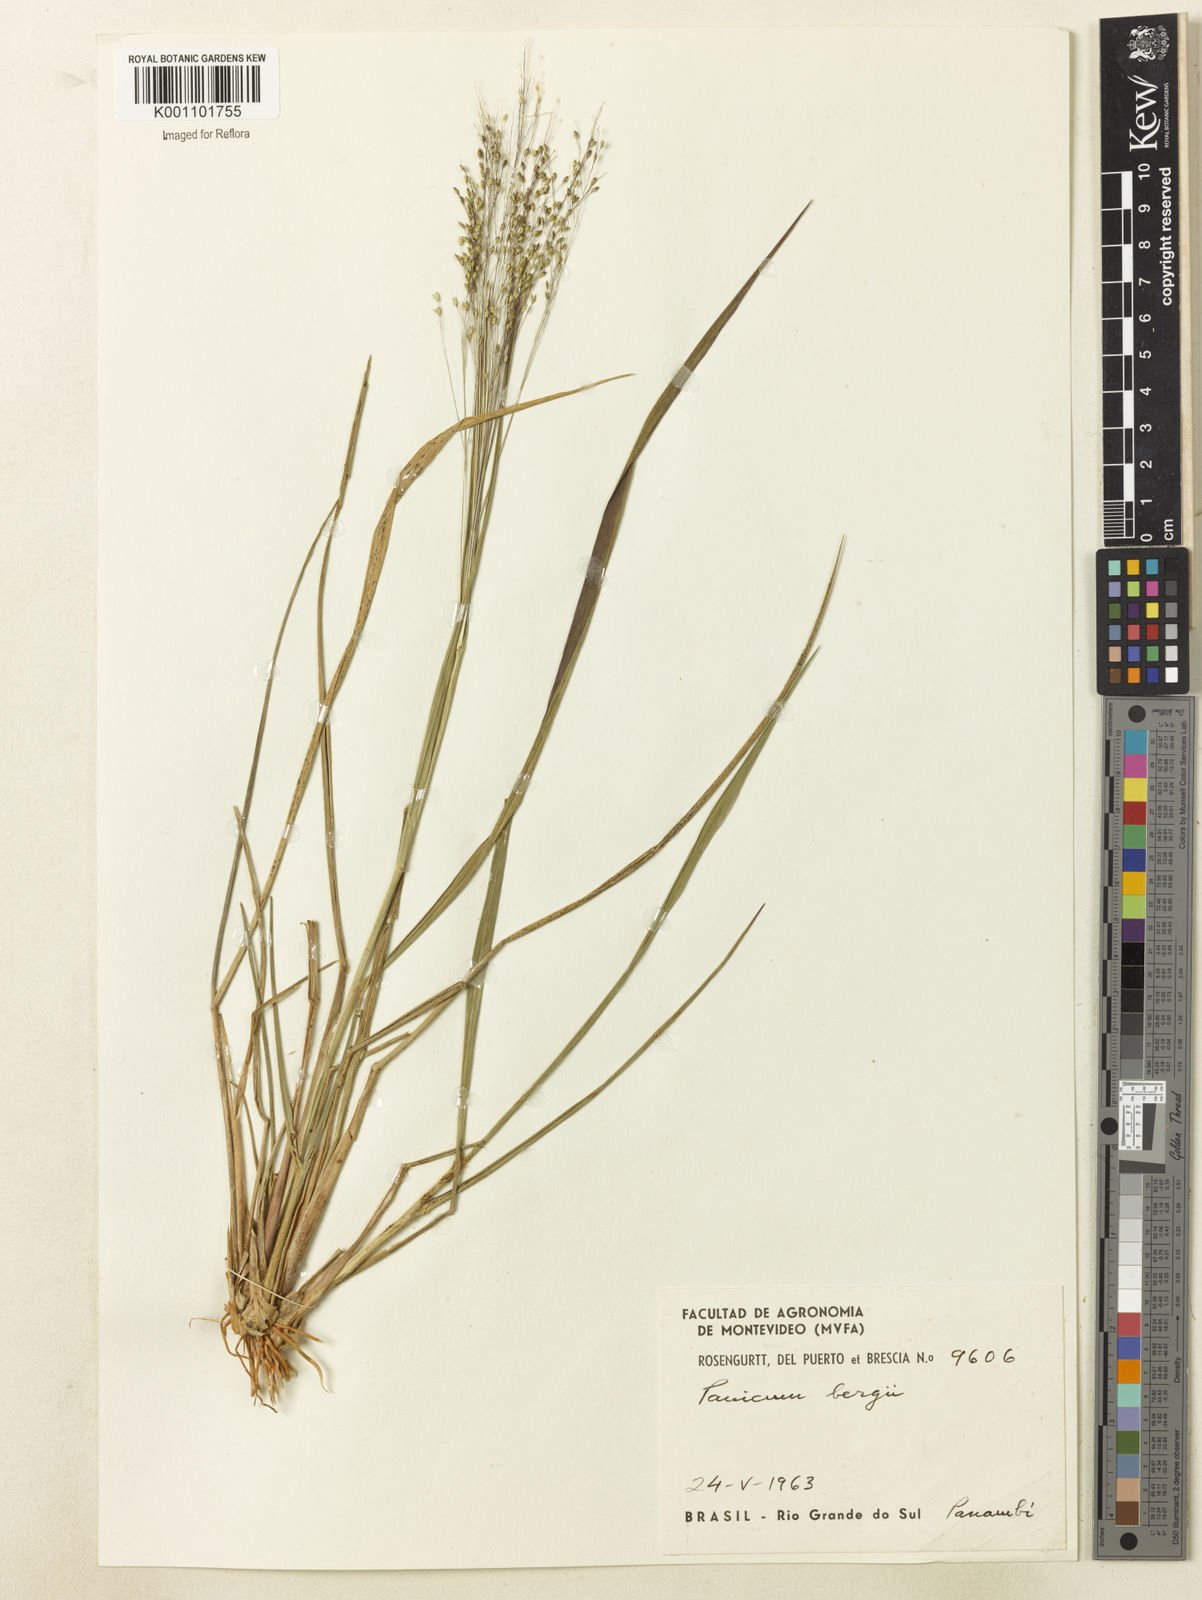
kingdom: Plantae
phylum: Tracheophyta
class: Liliopsida
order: Poales
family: Poaceae
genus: Panicum
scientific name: Panicum bergii
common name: Berg's panicgrass
